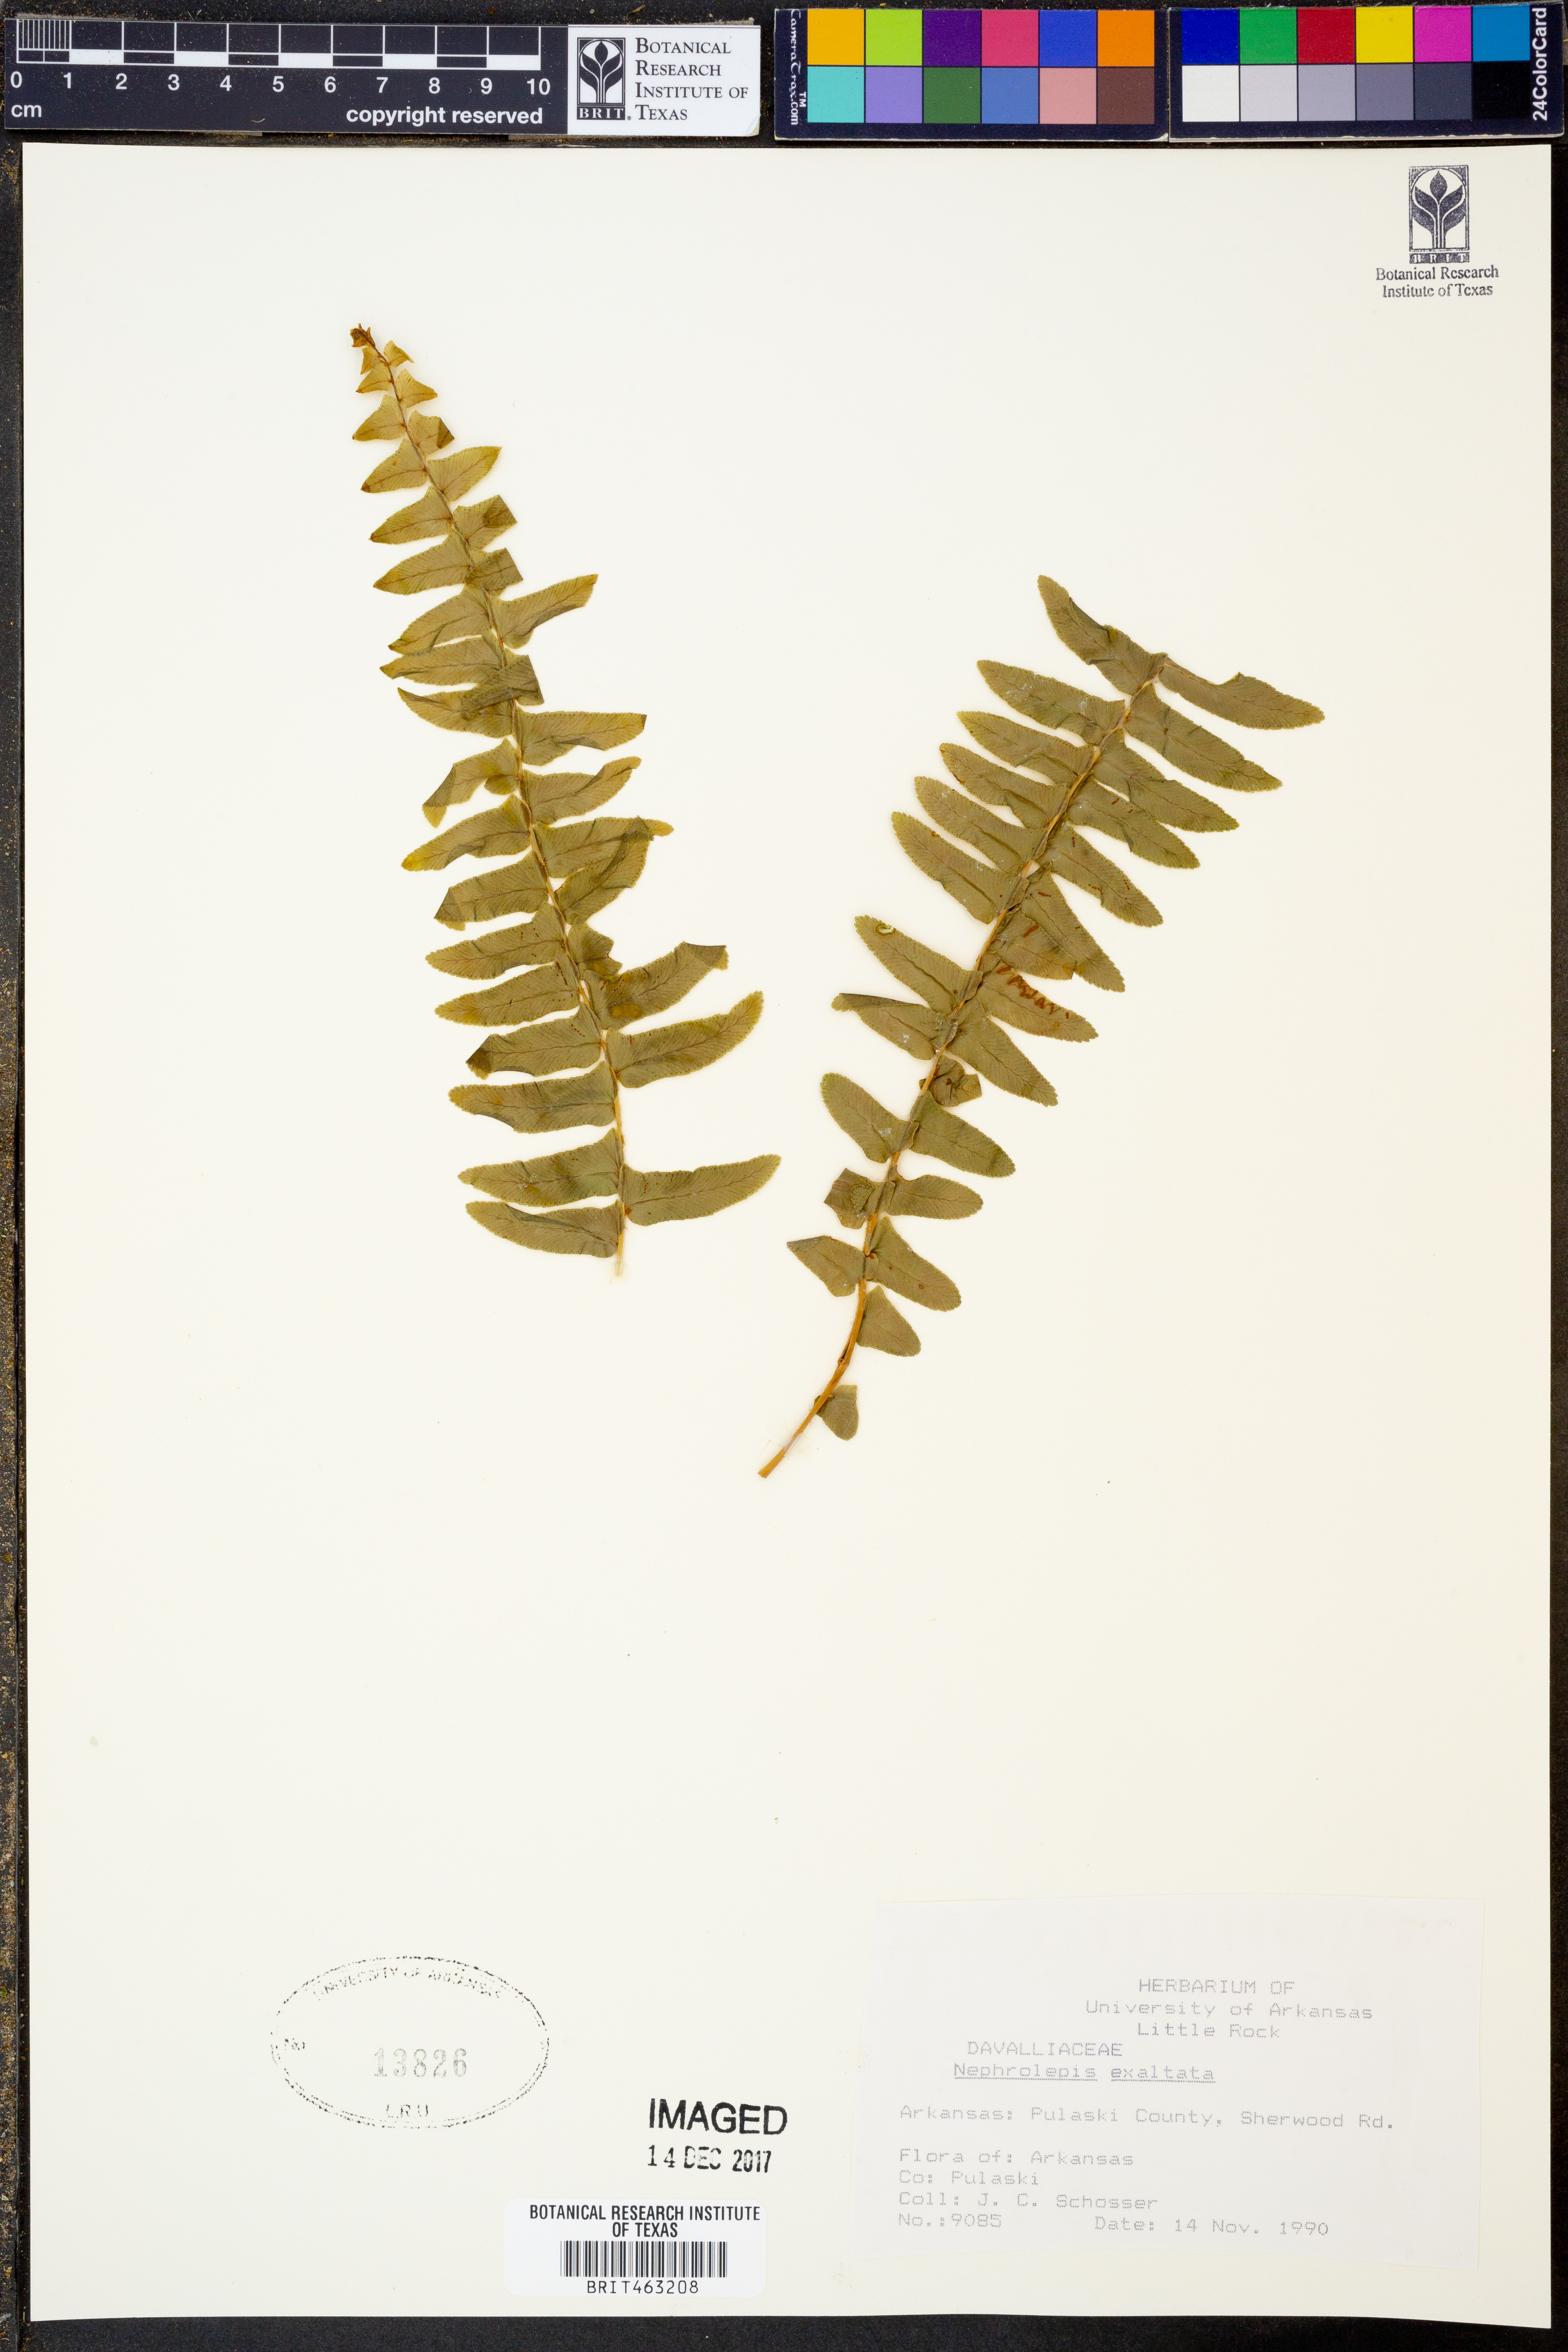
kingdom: Plantae
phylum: Tracheophyta
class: Polypodiopsida
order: Polypodiales
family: Nephrolepidaceae
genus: Nephrolepis
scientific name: Nephrolepis exaltata
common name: Sword fern
